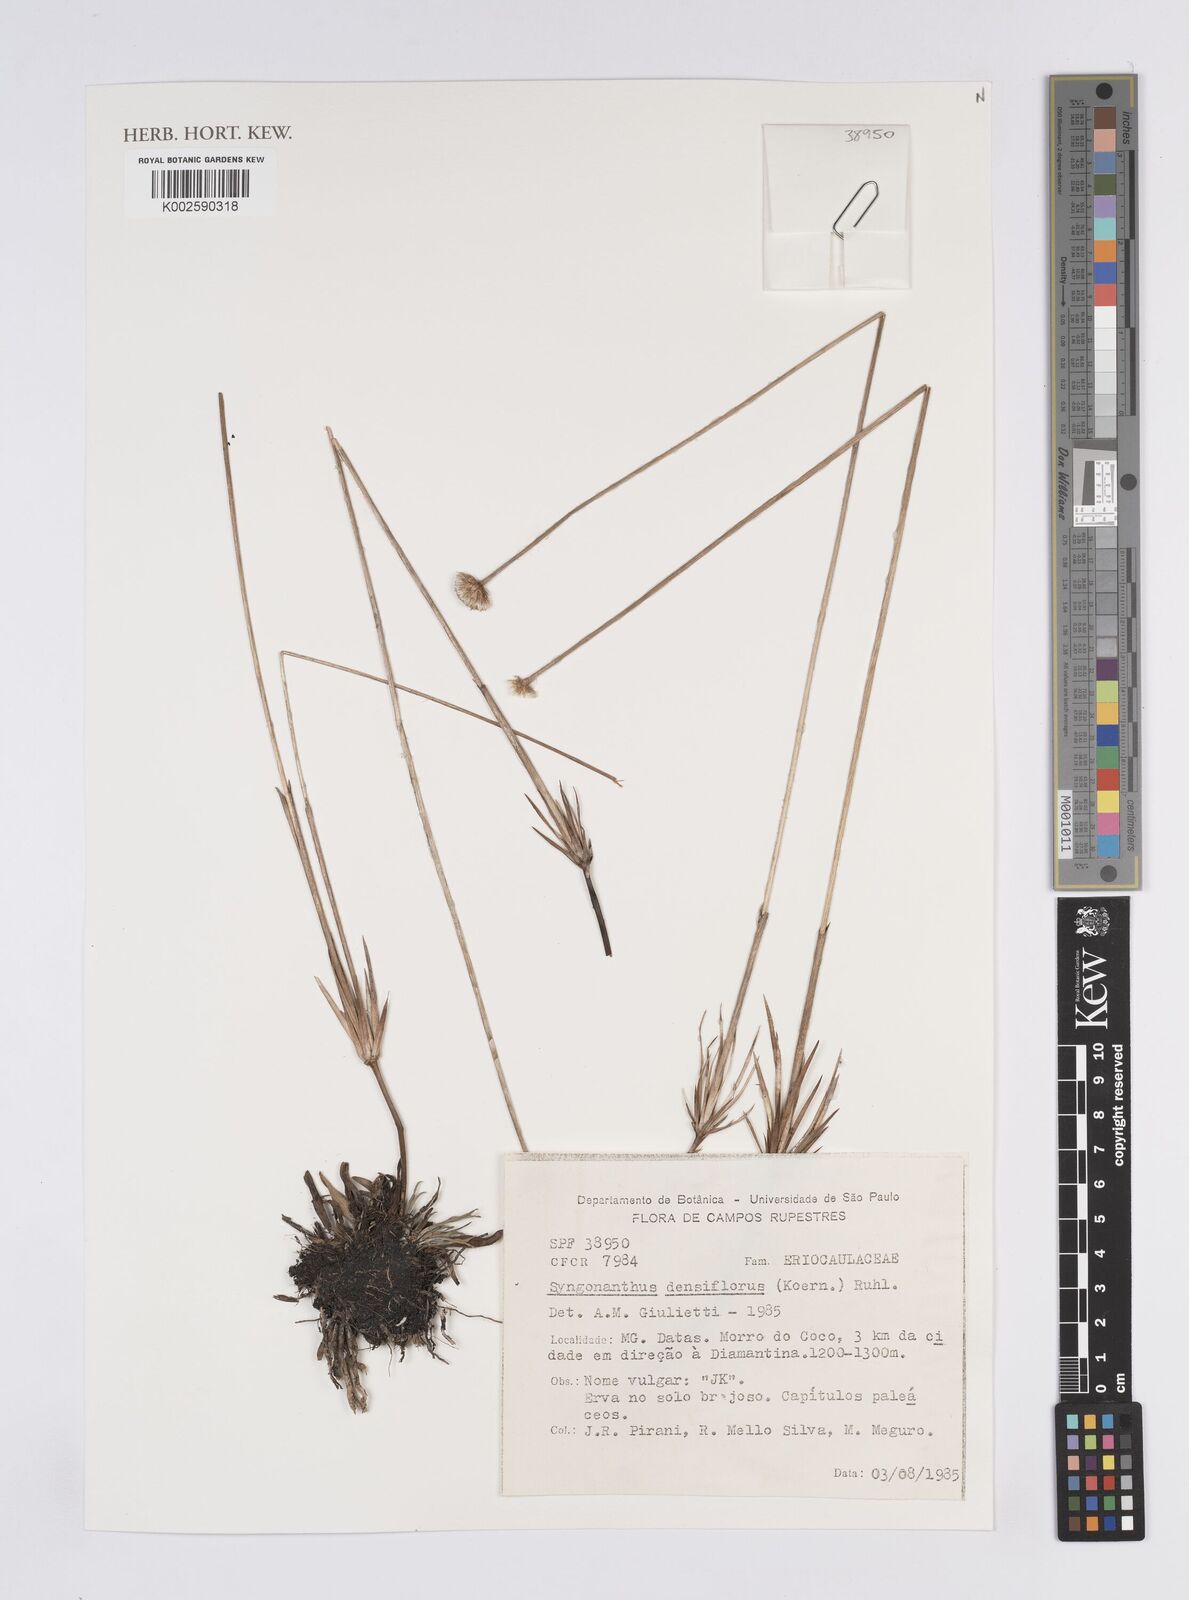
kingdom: Plantae
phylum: Tracheophyta
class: Liliopsida
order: Poales
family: Eriocaulaceae
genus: Syngonanthus
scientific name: Syngonanthus densiflorus
